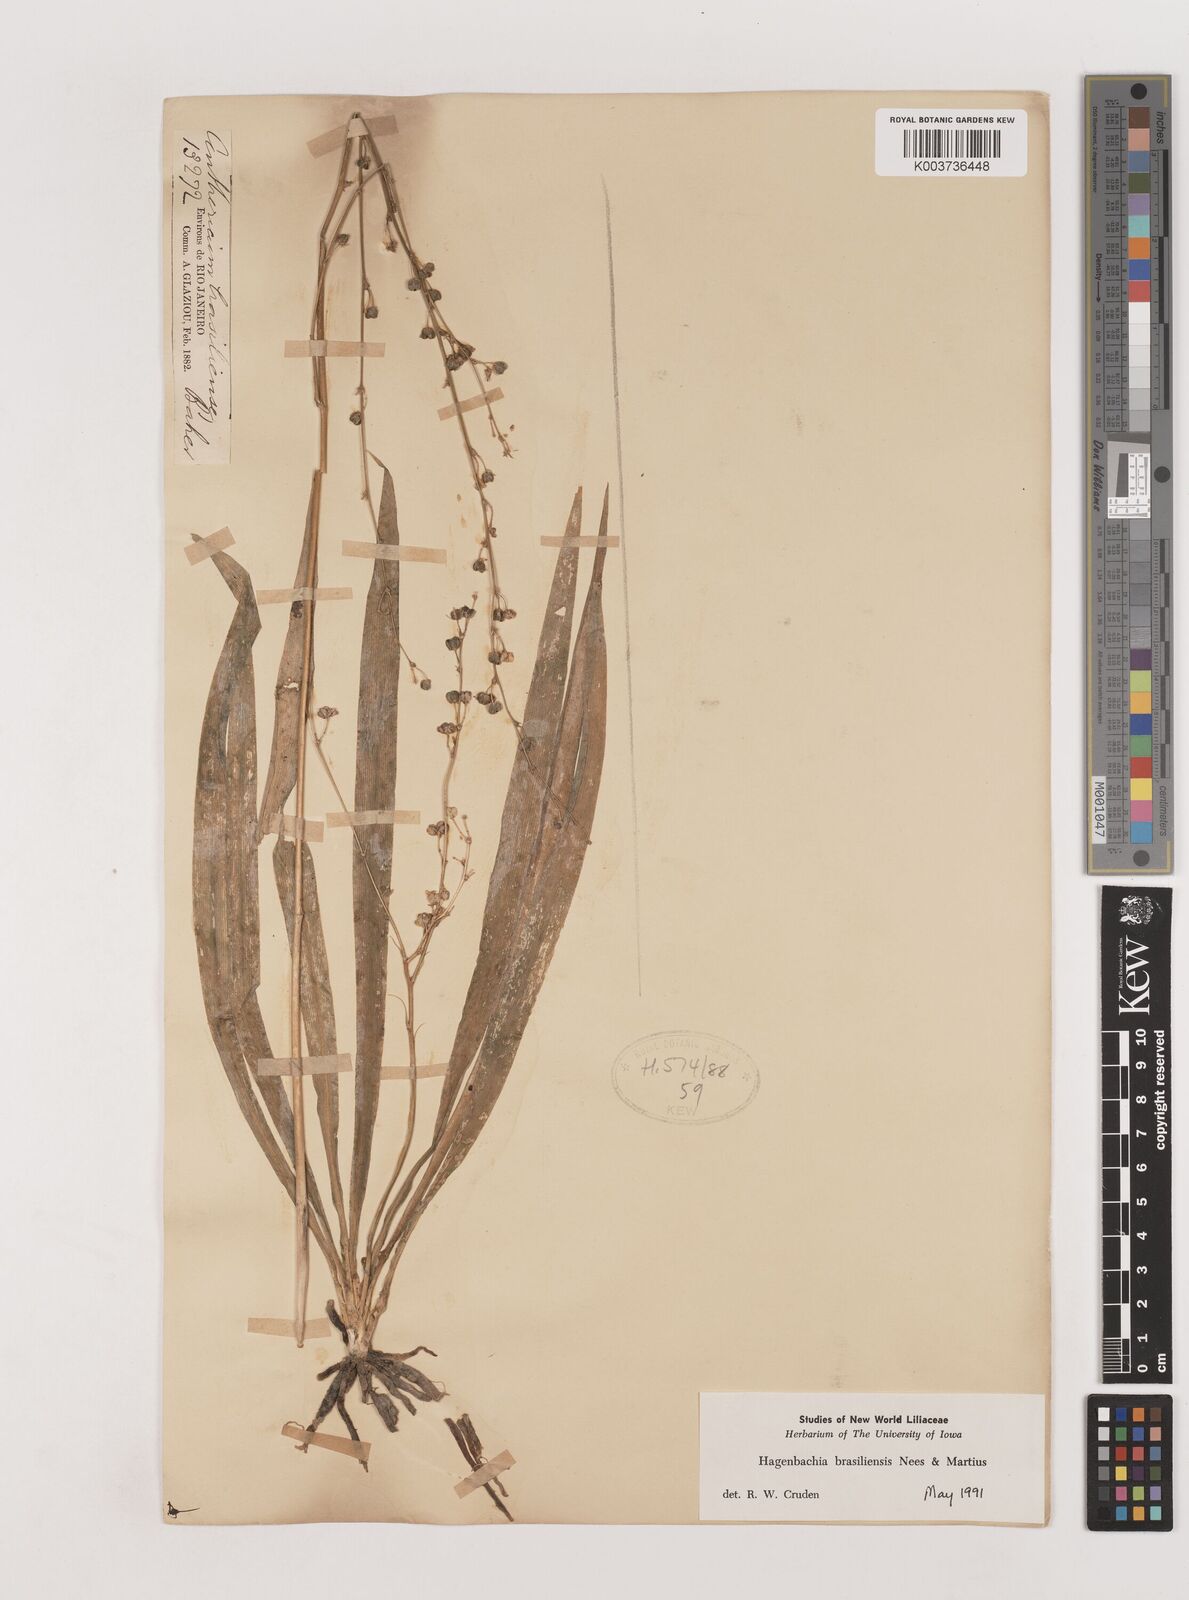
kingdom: Plantae
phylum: Tracheophyta
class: Liliopsida
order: Asparagales
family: Asparagaceae
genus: Hagenbachia
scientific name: Hagenbachia brasiliensis
